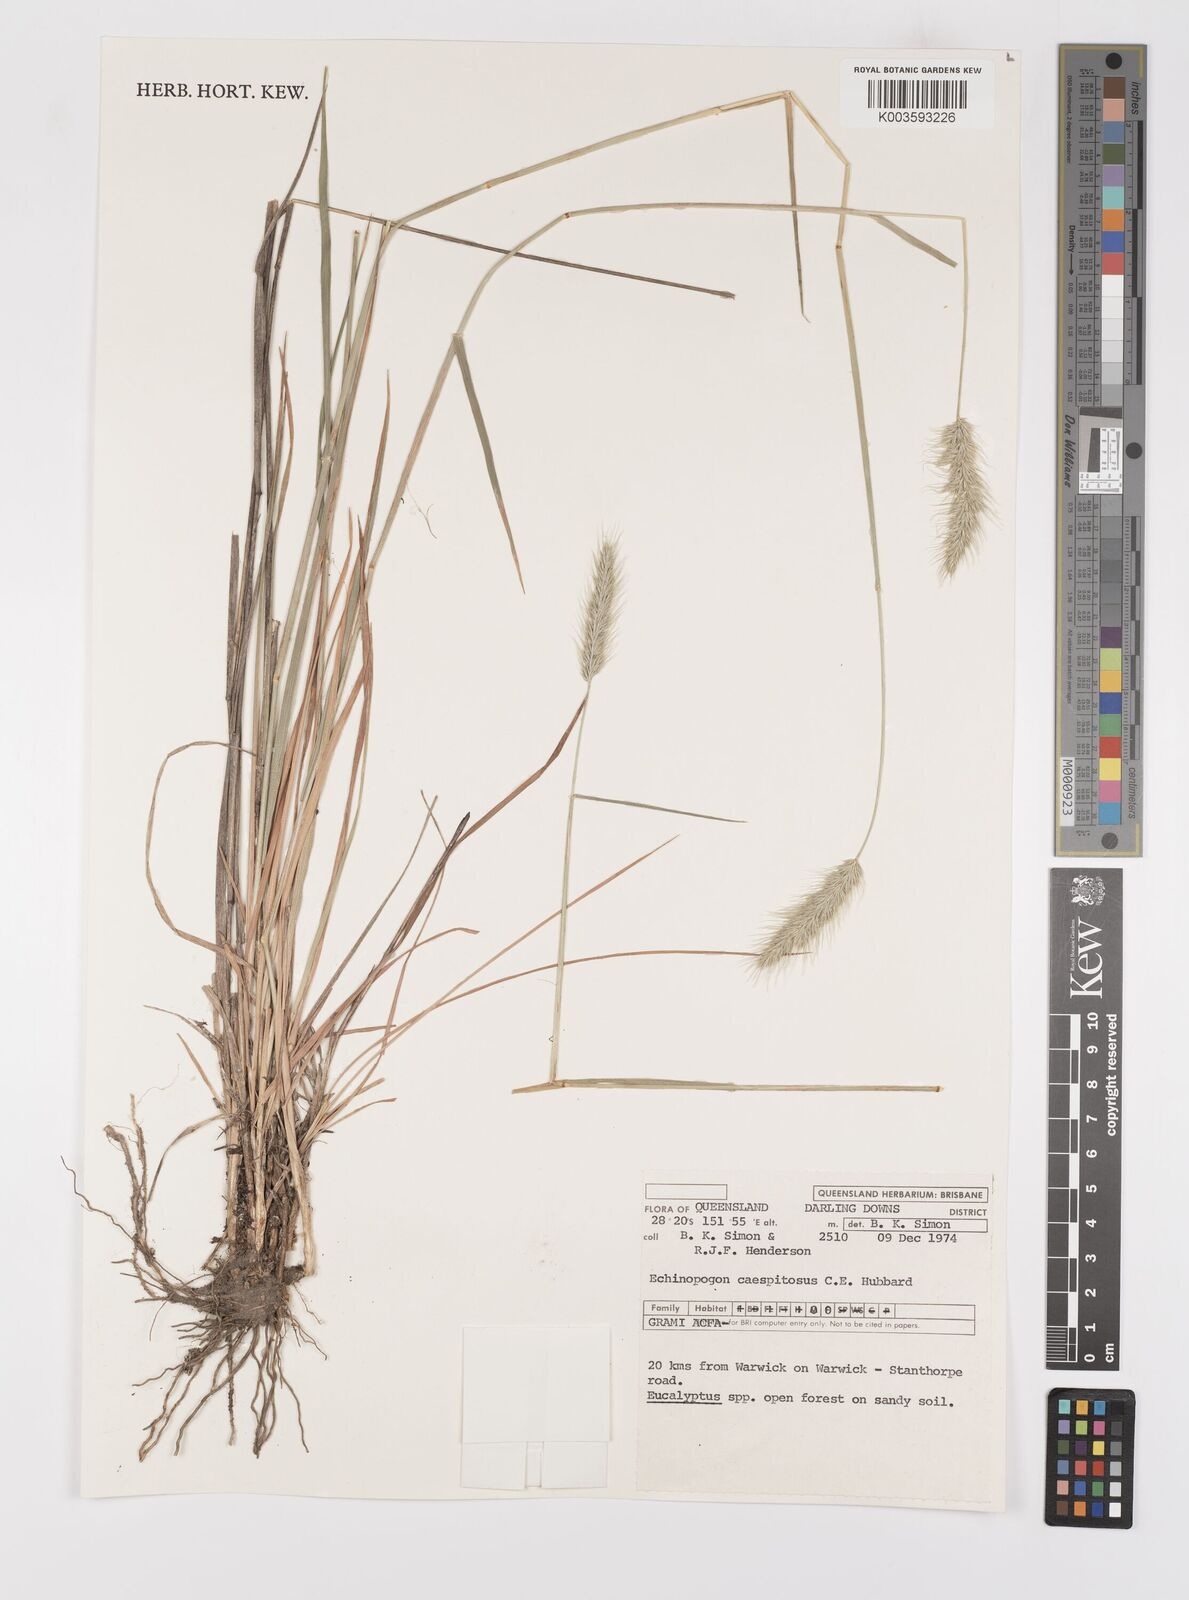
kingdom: Plantae
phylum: Tracheophyta
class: Liliopsida
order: Poales
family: Poaceae
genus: Echinopogon
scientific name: Echinopogon caespitosus
